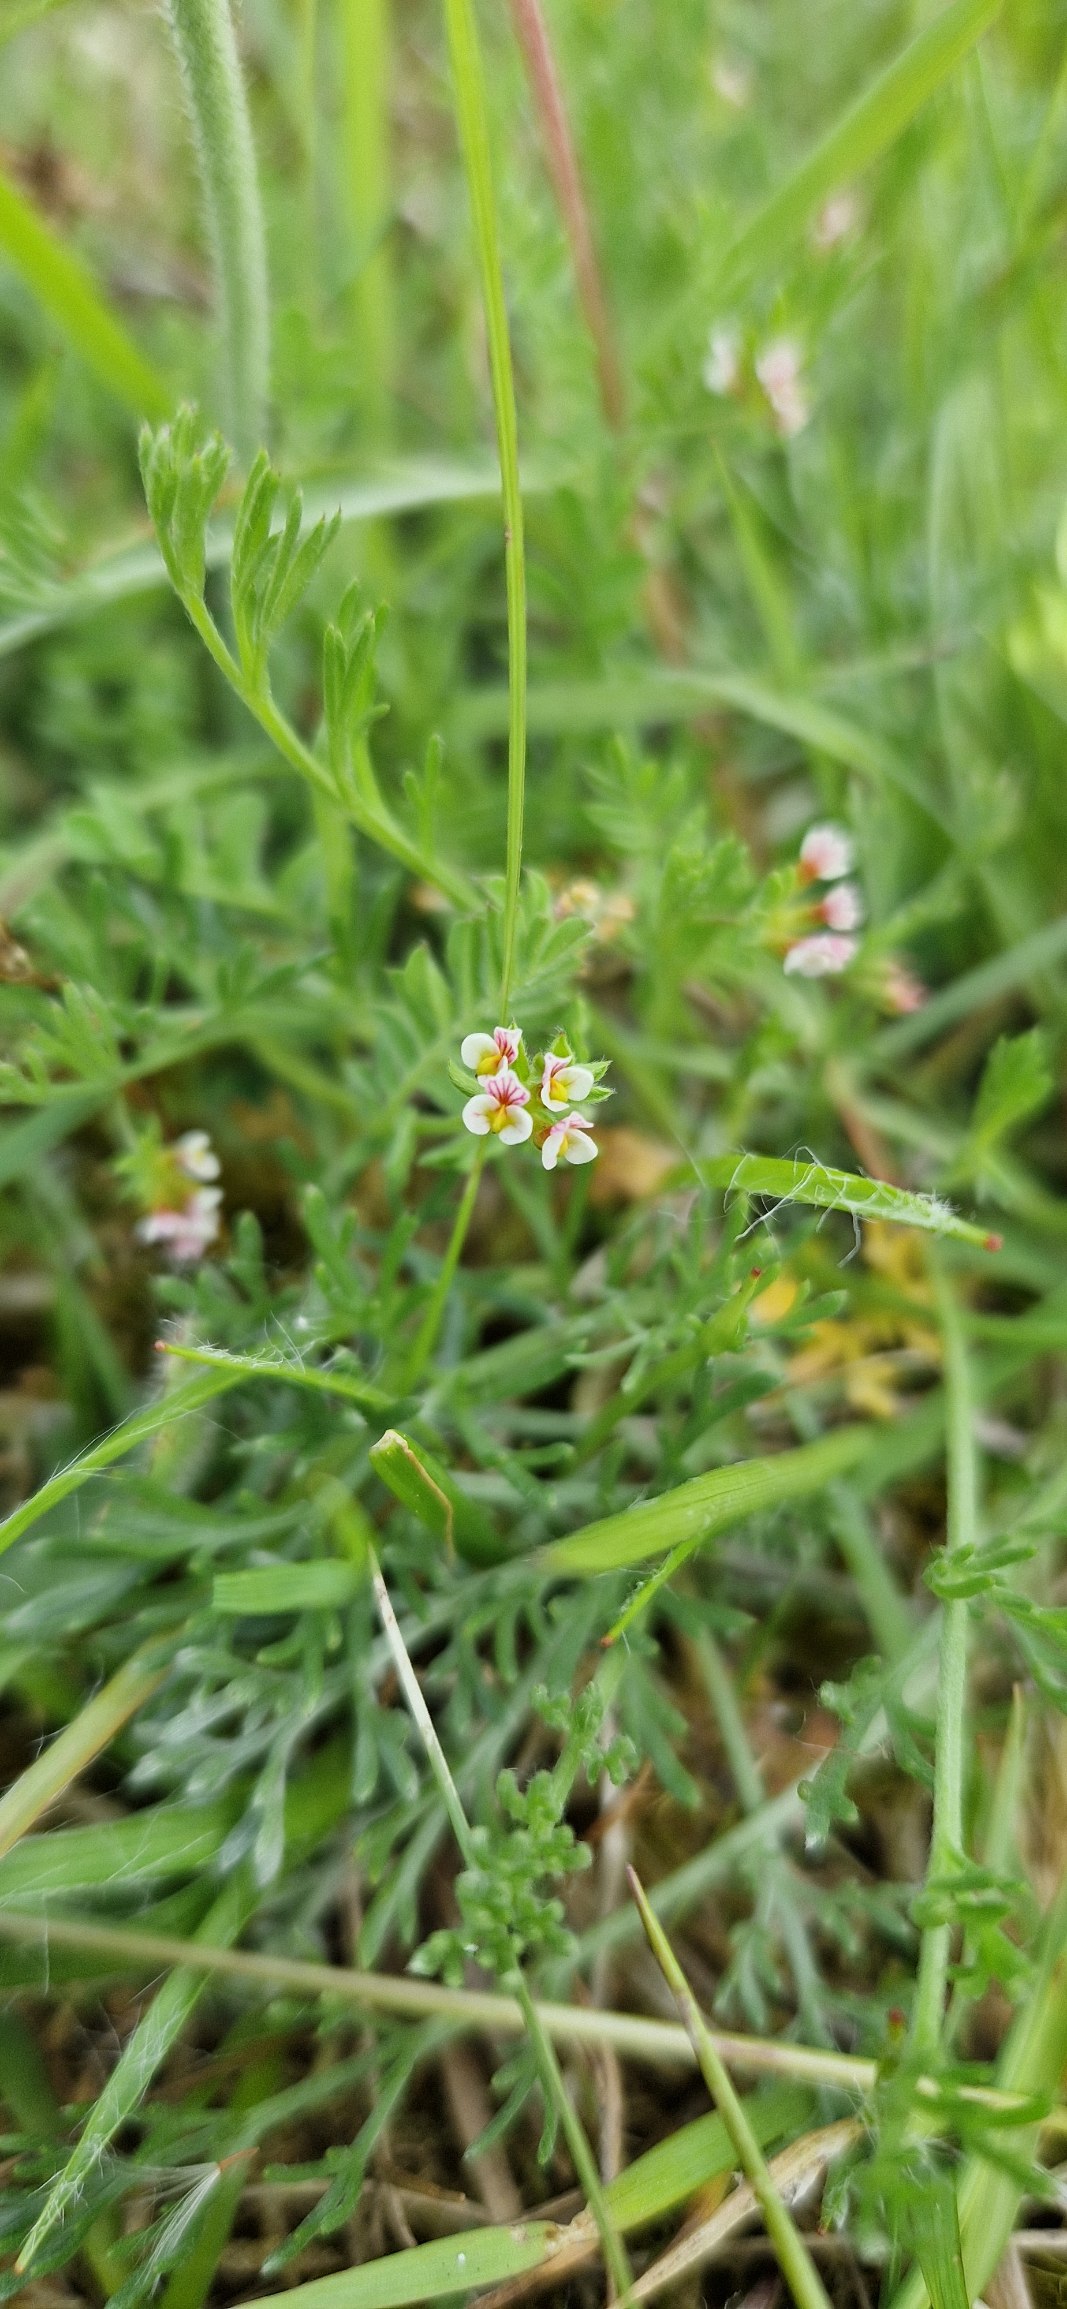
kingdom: Plantae
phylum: Tracheophyta
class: Magnoliopsida
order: Fabales
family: Fabaceae
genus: Ornithopus
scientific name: Ornithopus perpusillus
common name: Liden fugleklo
